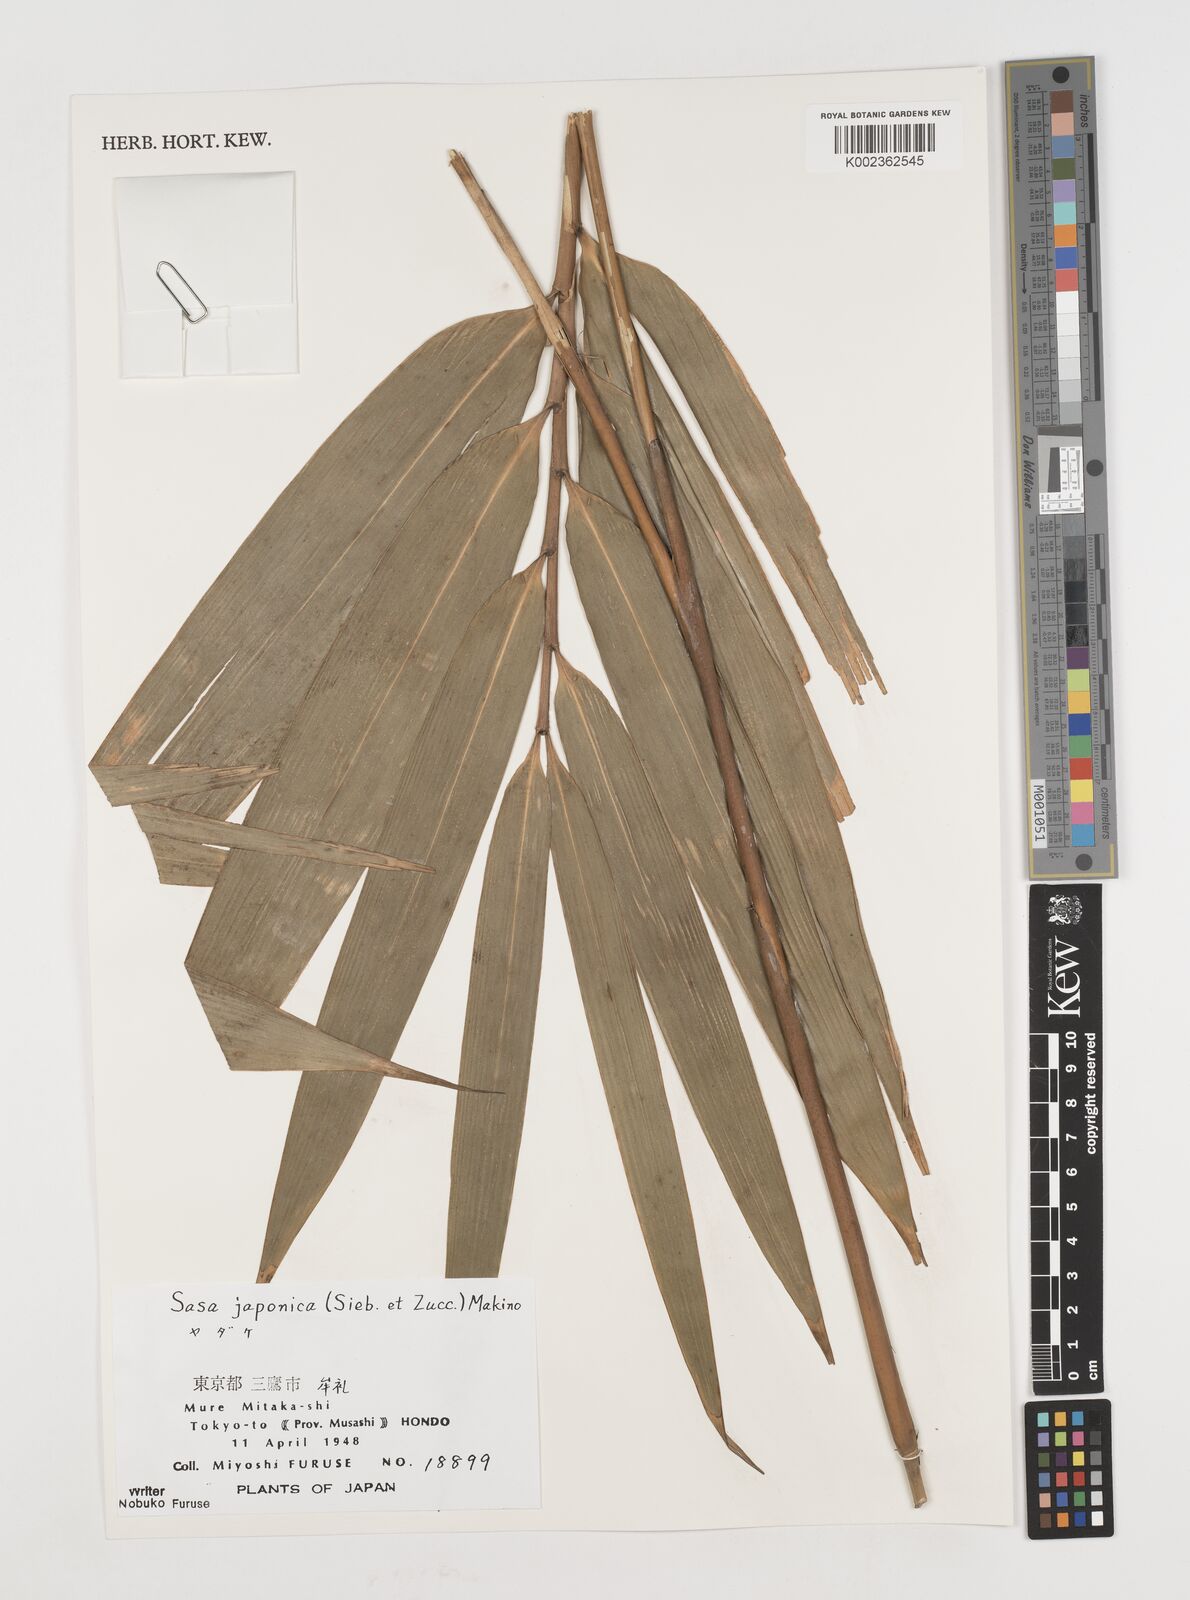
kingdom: Plantae
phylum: Tracheophyta
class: Liliopsida
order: Poales
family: Poaceae
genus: Pseudosasa
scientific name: Pseudosasa japonica
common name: Arrow bamboo
